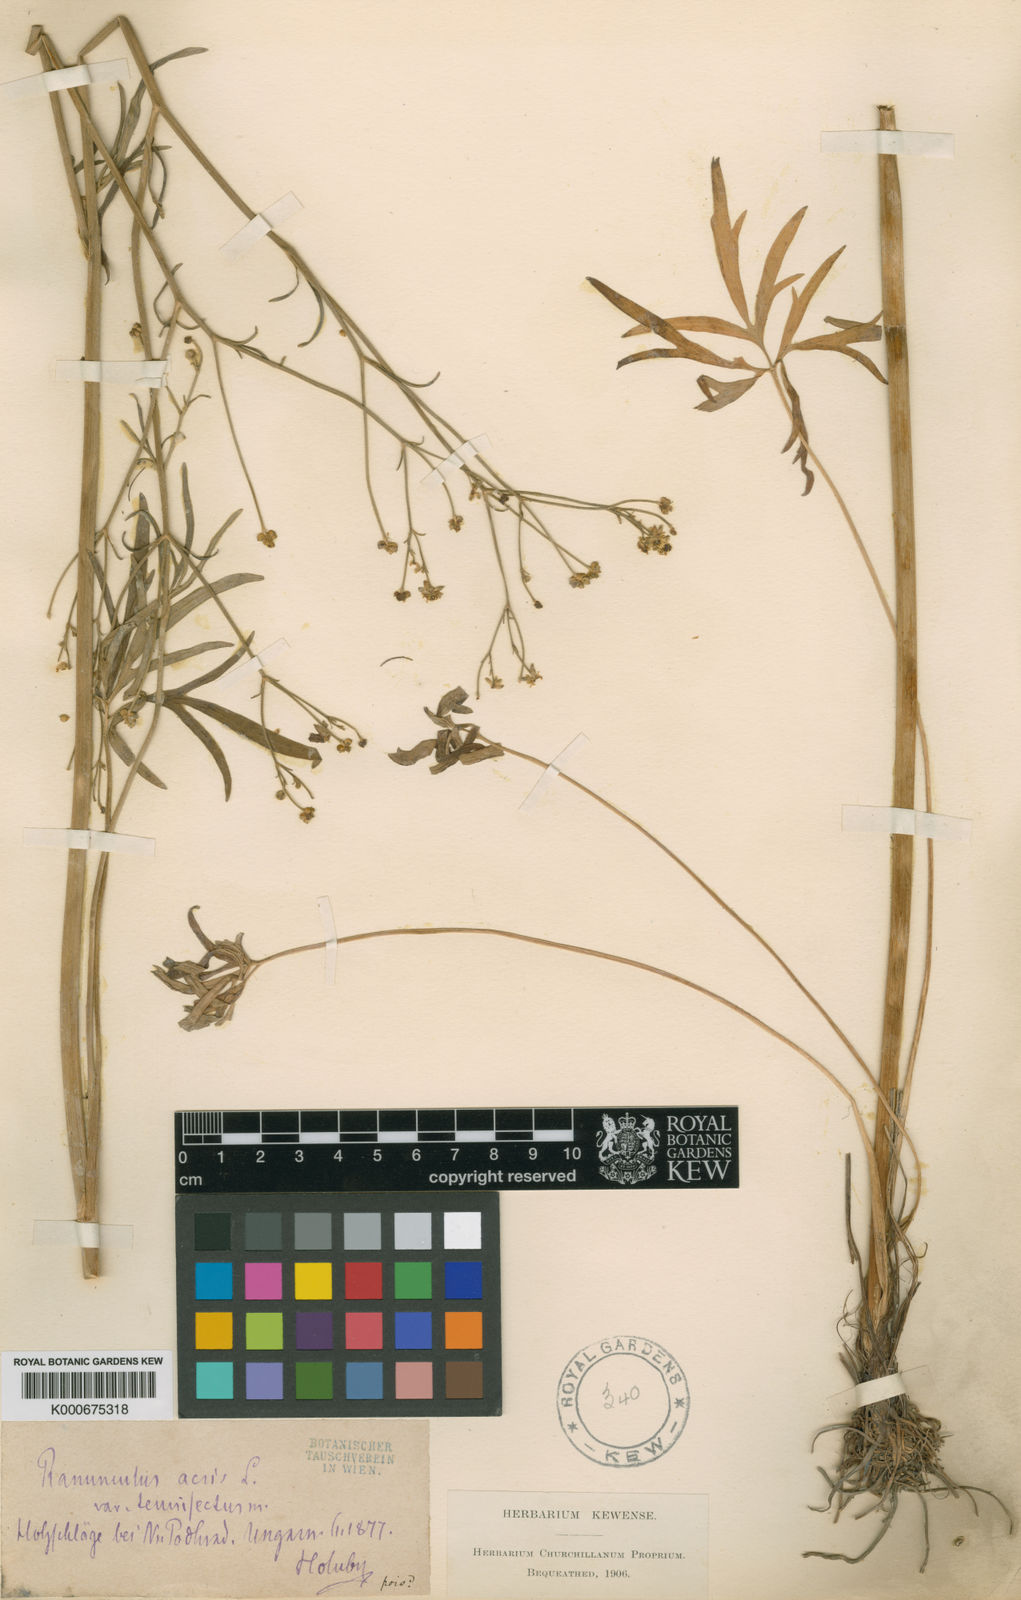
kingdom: Plantae
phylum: Tracheophyta
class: Magnoliopsida
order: Ranunculales
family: Ranunculaceae
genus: Ranunculus
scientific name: Ranunculus acris
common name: Meadow buttercup
